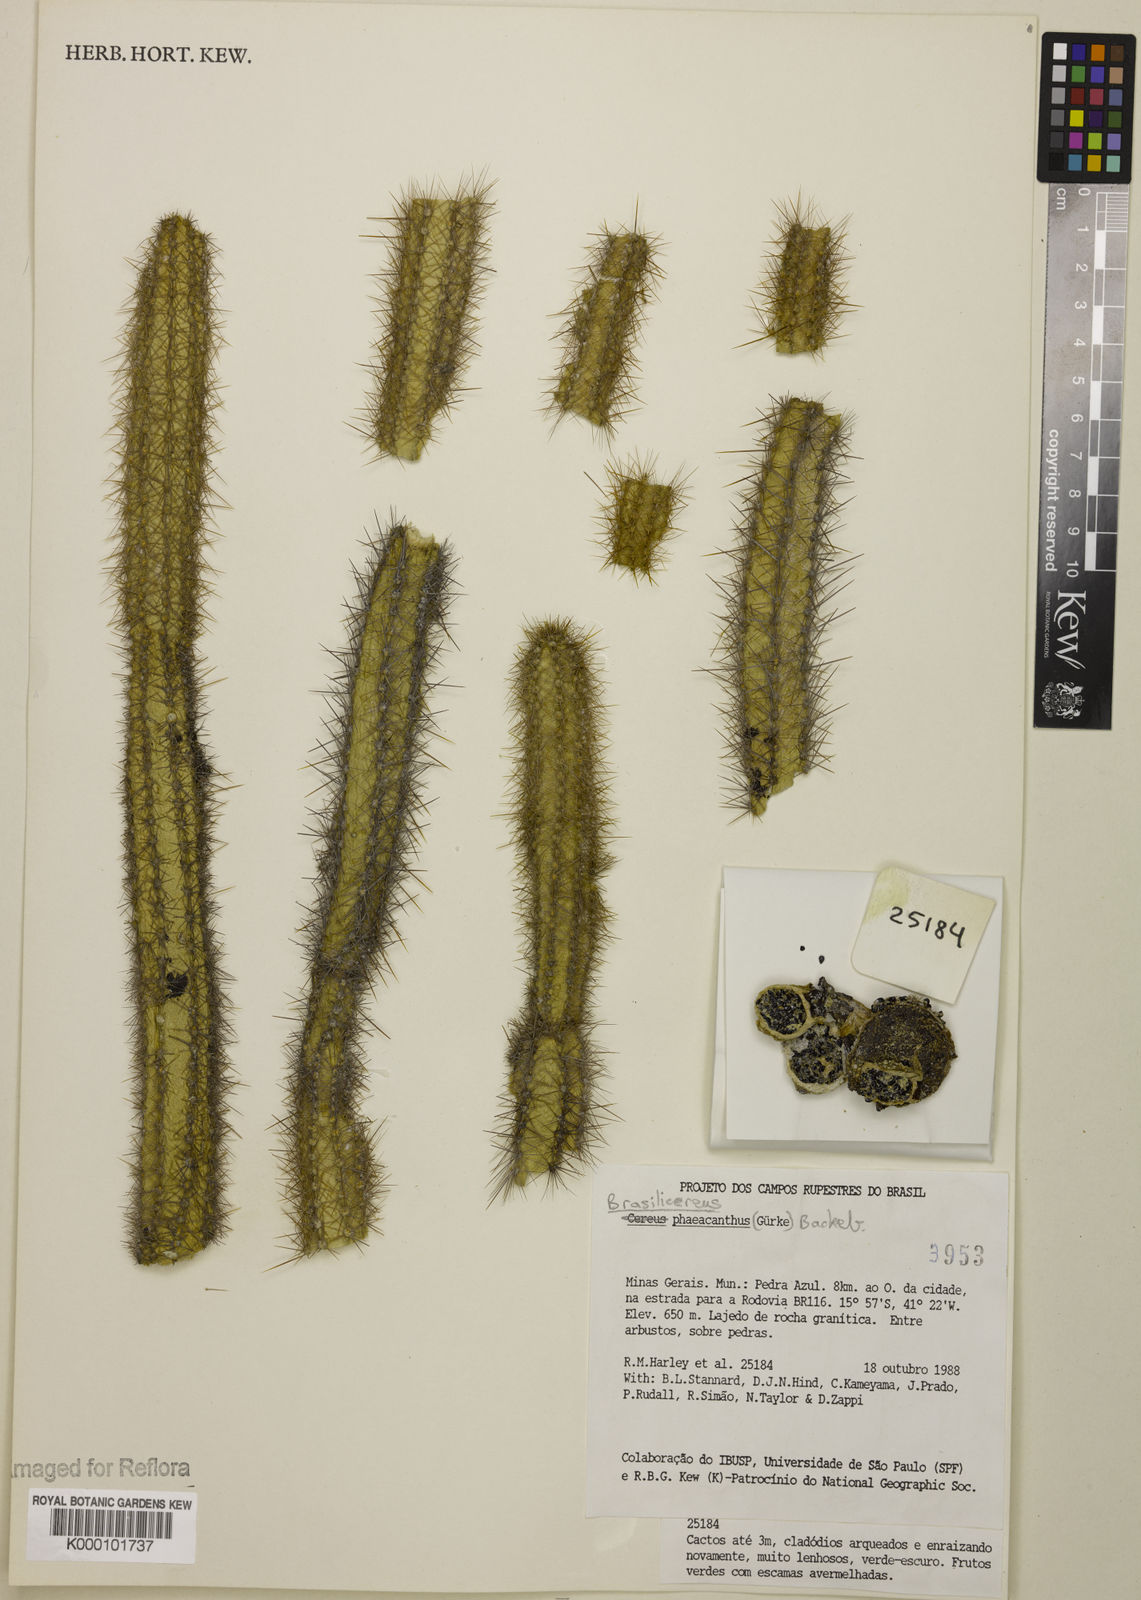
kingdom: Plantae
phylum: Tracheophyta
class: Magnoliopsida
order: Caryophyllales
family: Cactaceae
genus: Brasilicereus
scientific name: Brasilicereus phaeacanthus
